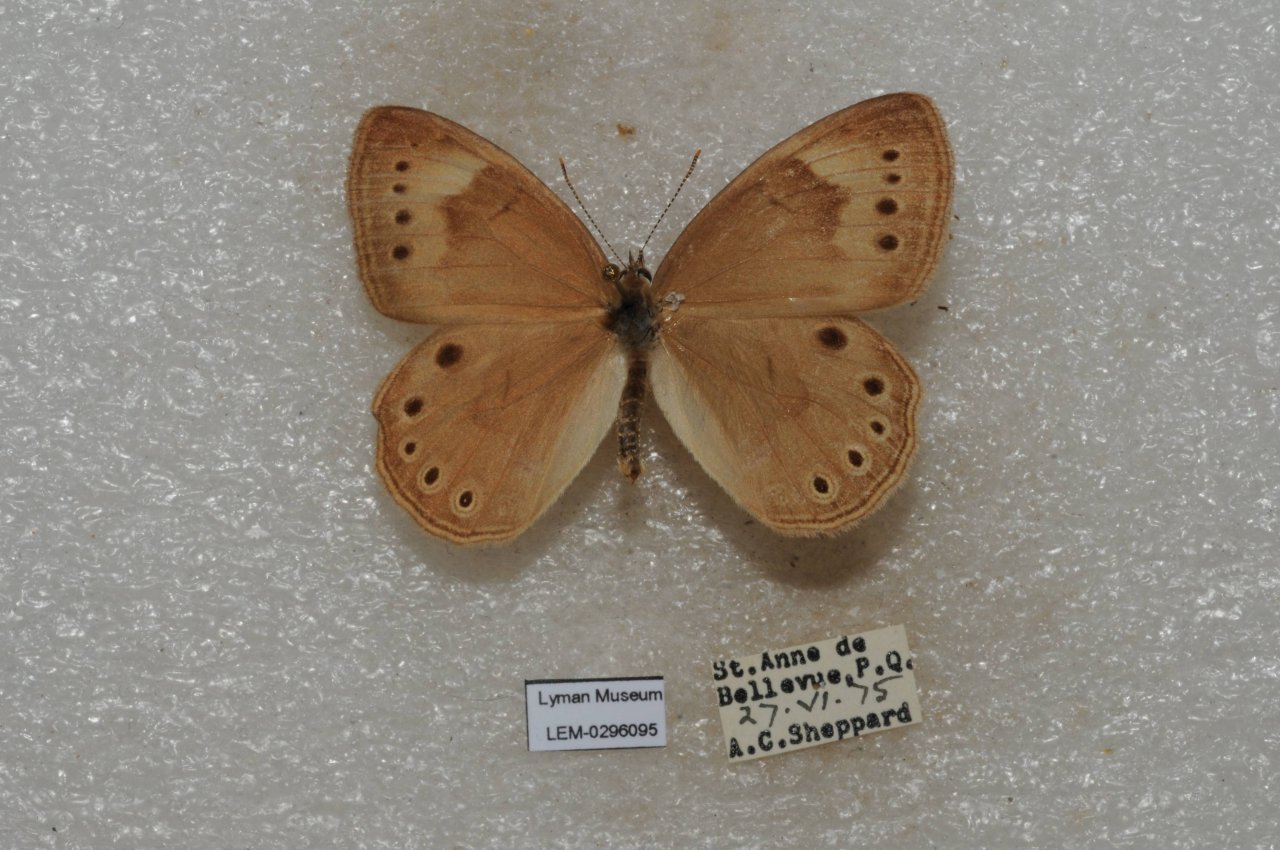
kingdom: Animalia
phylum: Arthropoda
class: Insecta
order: Lepidoptera
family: Nymphalidae
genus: Lethe
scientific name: Lethe eurydice
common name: Eyed Brown
